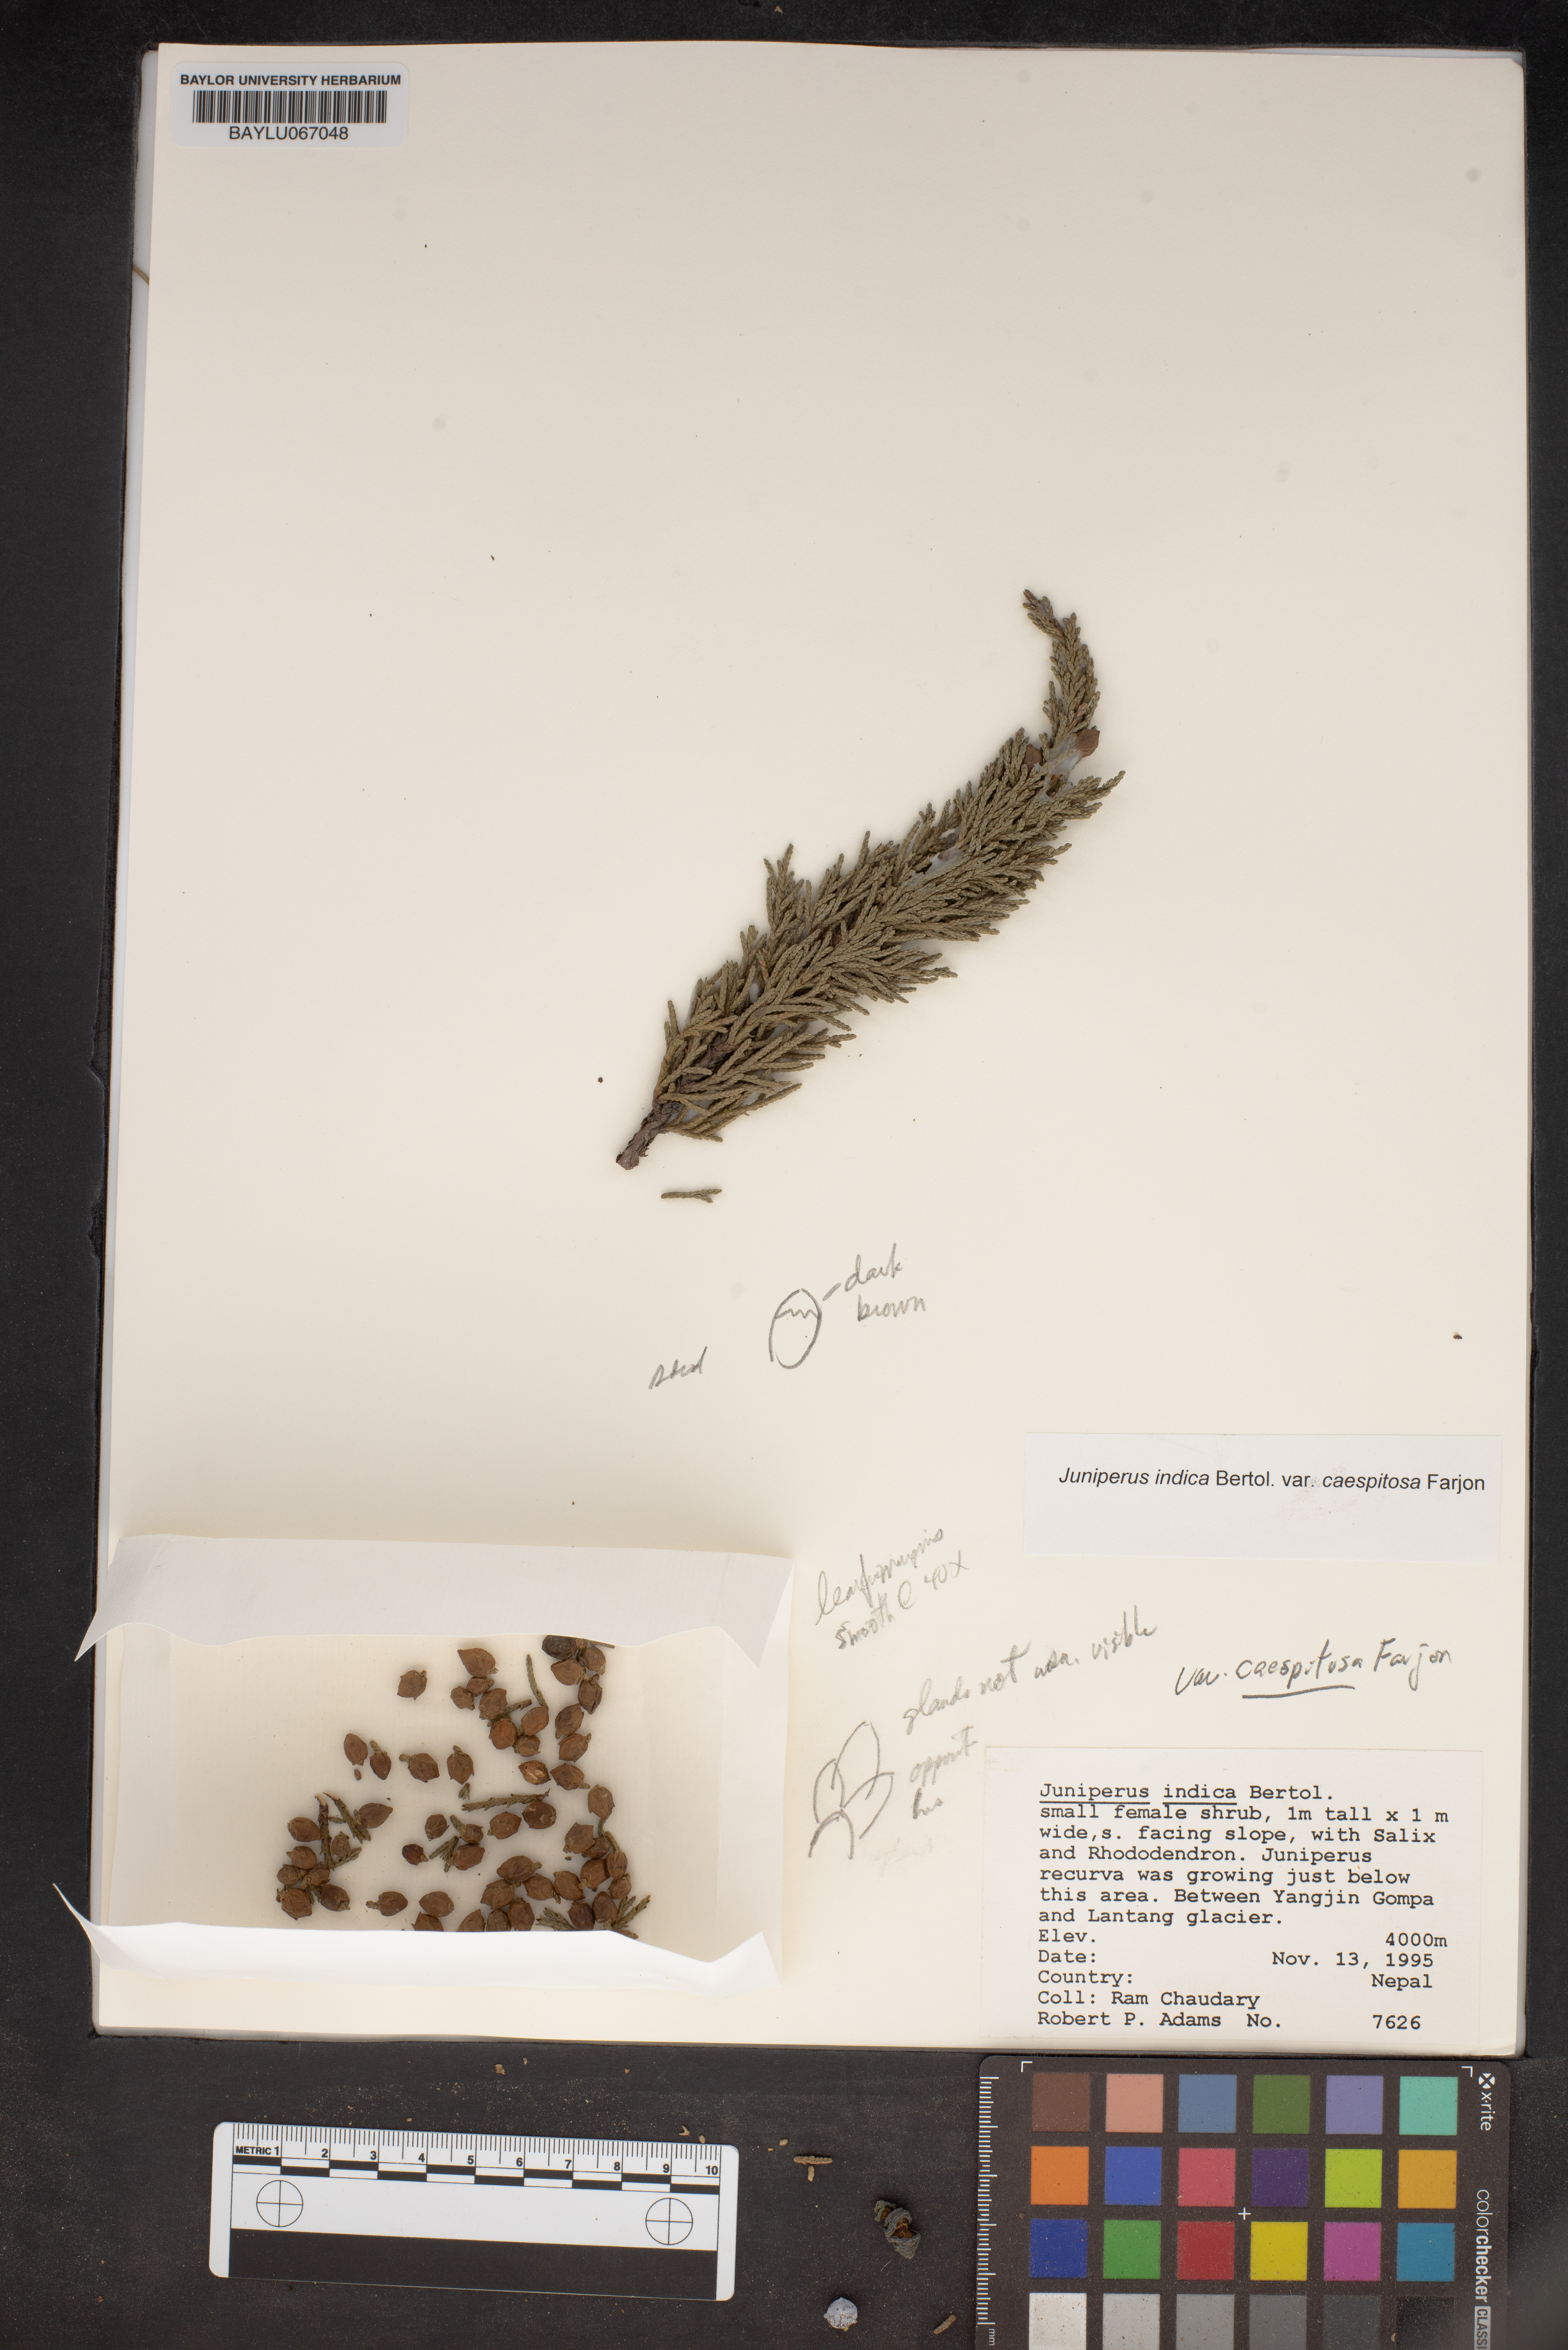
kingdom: Plantae
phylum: Tracheophyta
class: Pinopsida
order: Pinales
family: Cupressaceae
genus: Juniperus
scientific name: Juniperus indica
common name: Black juniper
